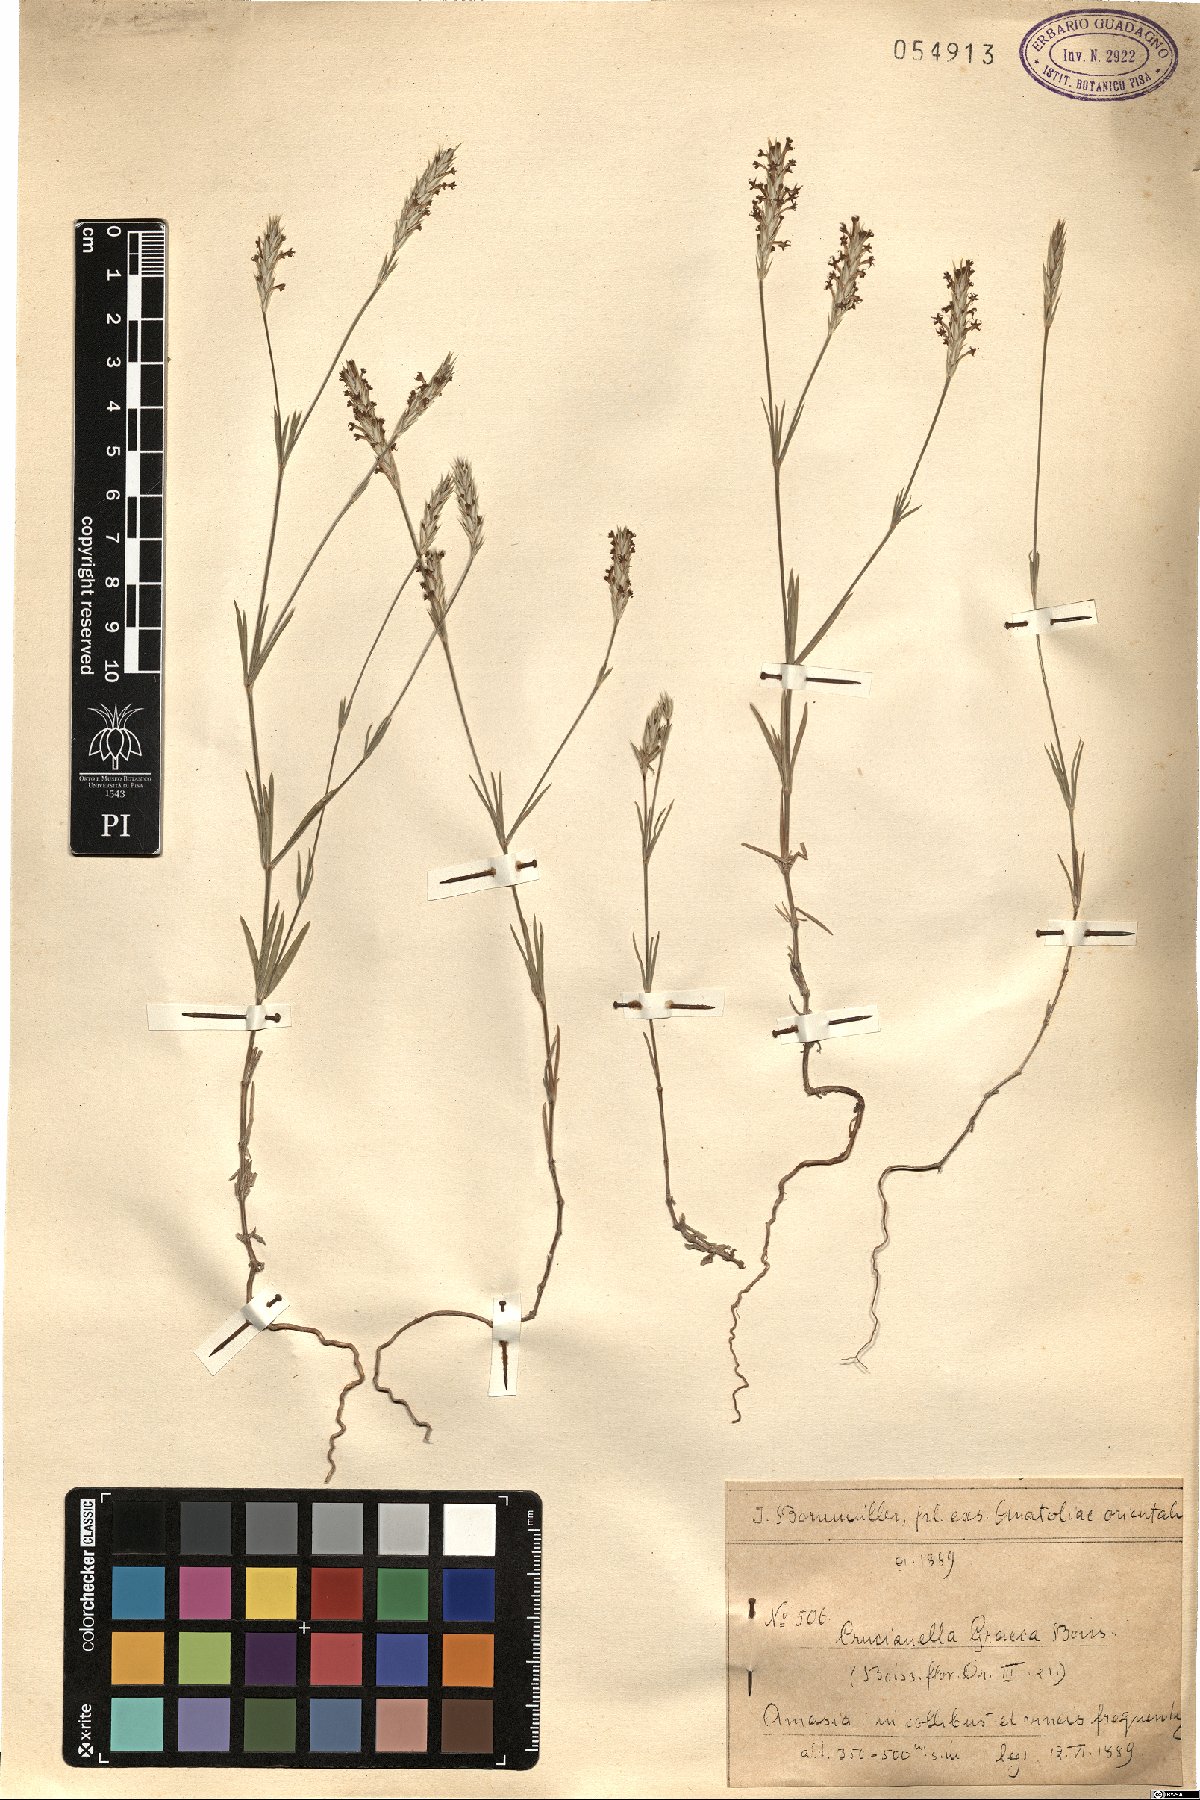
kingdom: Plantae
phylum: Tracheophyta
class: Magnoliopsida
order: Gentianales
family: Rubiaceae
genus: Crucianella
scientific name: Crucianella graeca
